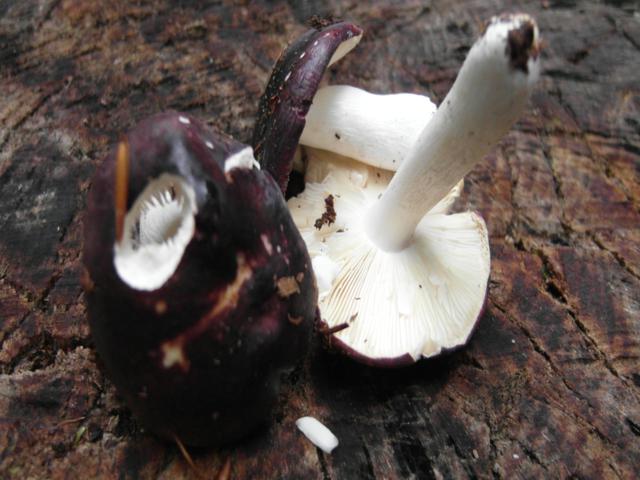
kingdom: Fungi
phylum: Basidiomycota
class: Agaricomycetes
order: Russulales
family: Russulaceae
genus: Russula
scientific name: Russula atropurpurea
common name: purpurbroget skørhat
